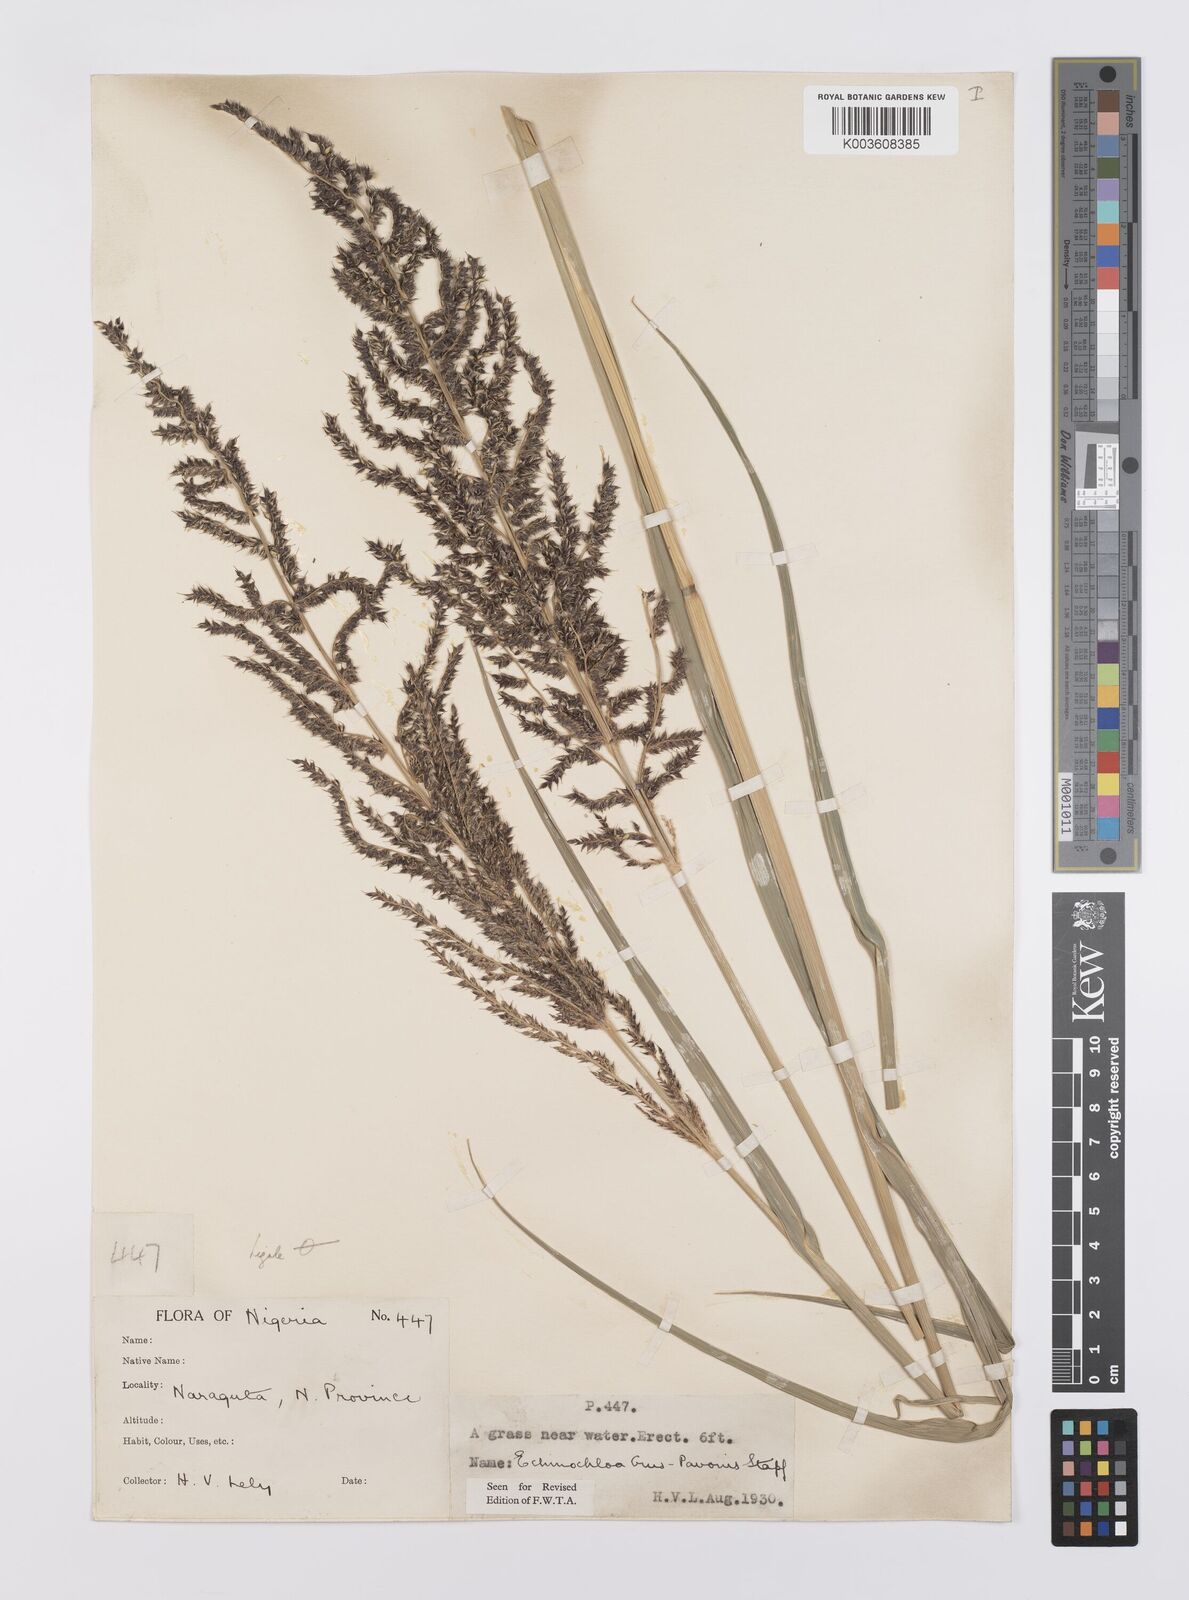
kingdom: Plantae
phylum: Tracheophyta
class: Liliopsida
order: Poales
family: Poaceae
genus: Echinochloa
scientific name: Echinochloa crus-pavonis
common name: Gulf cockspur grass
